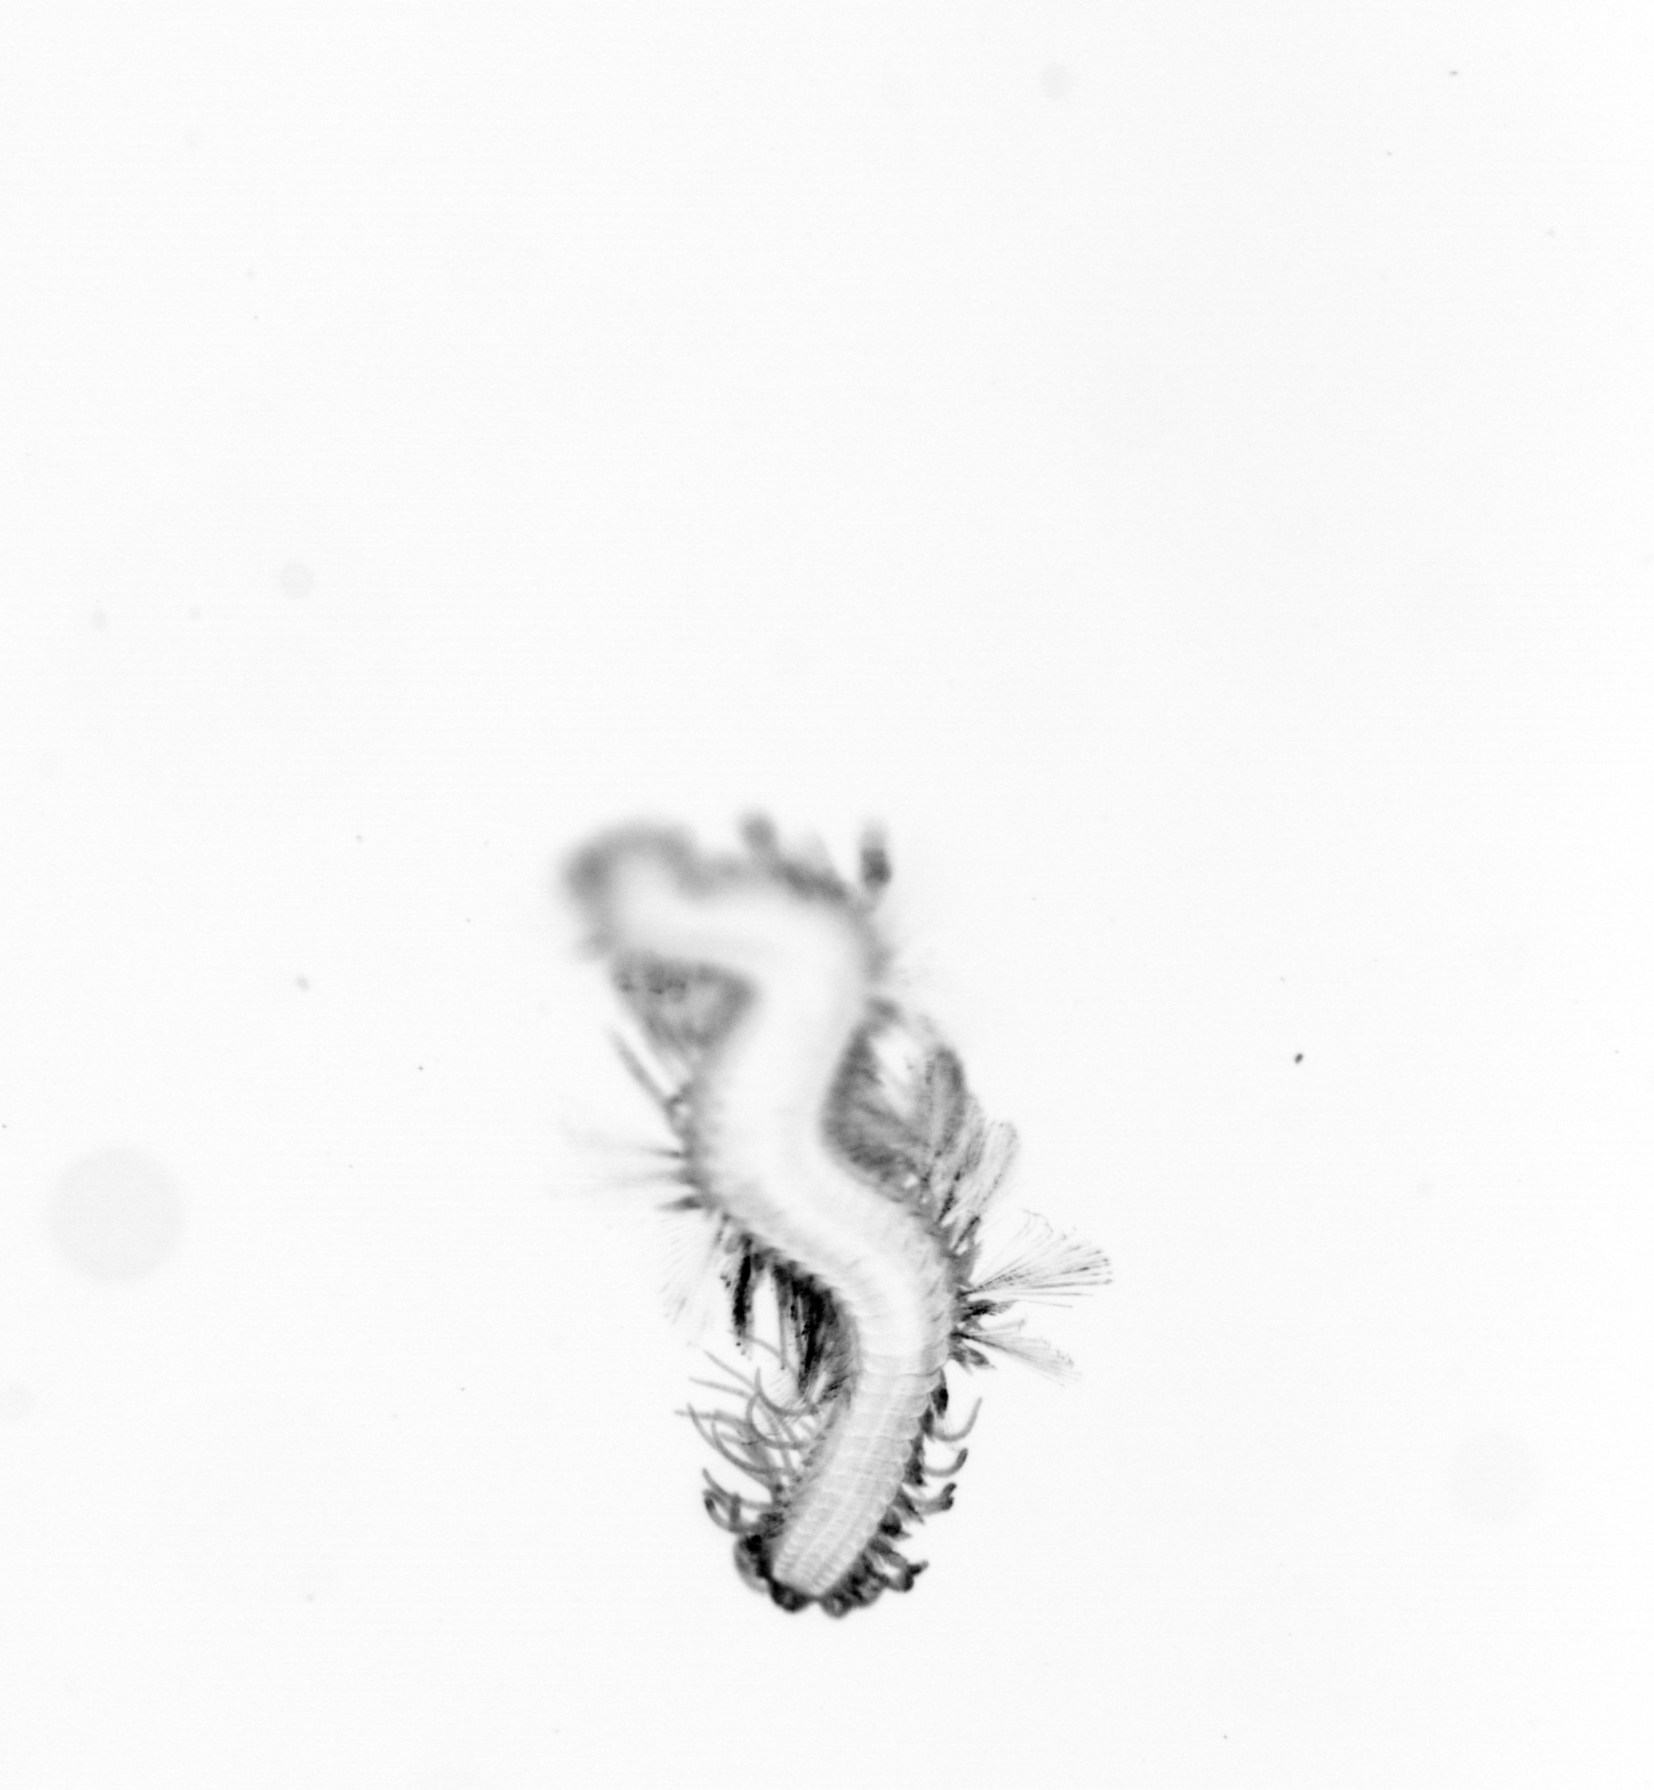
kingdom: Animalia
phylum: Annelida
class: Polychaeta
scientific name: Polychaeta
